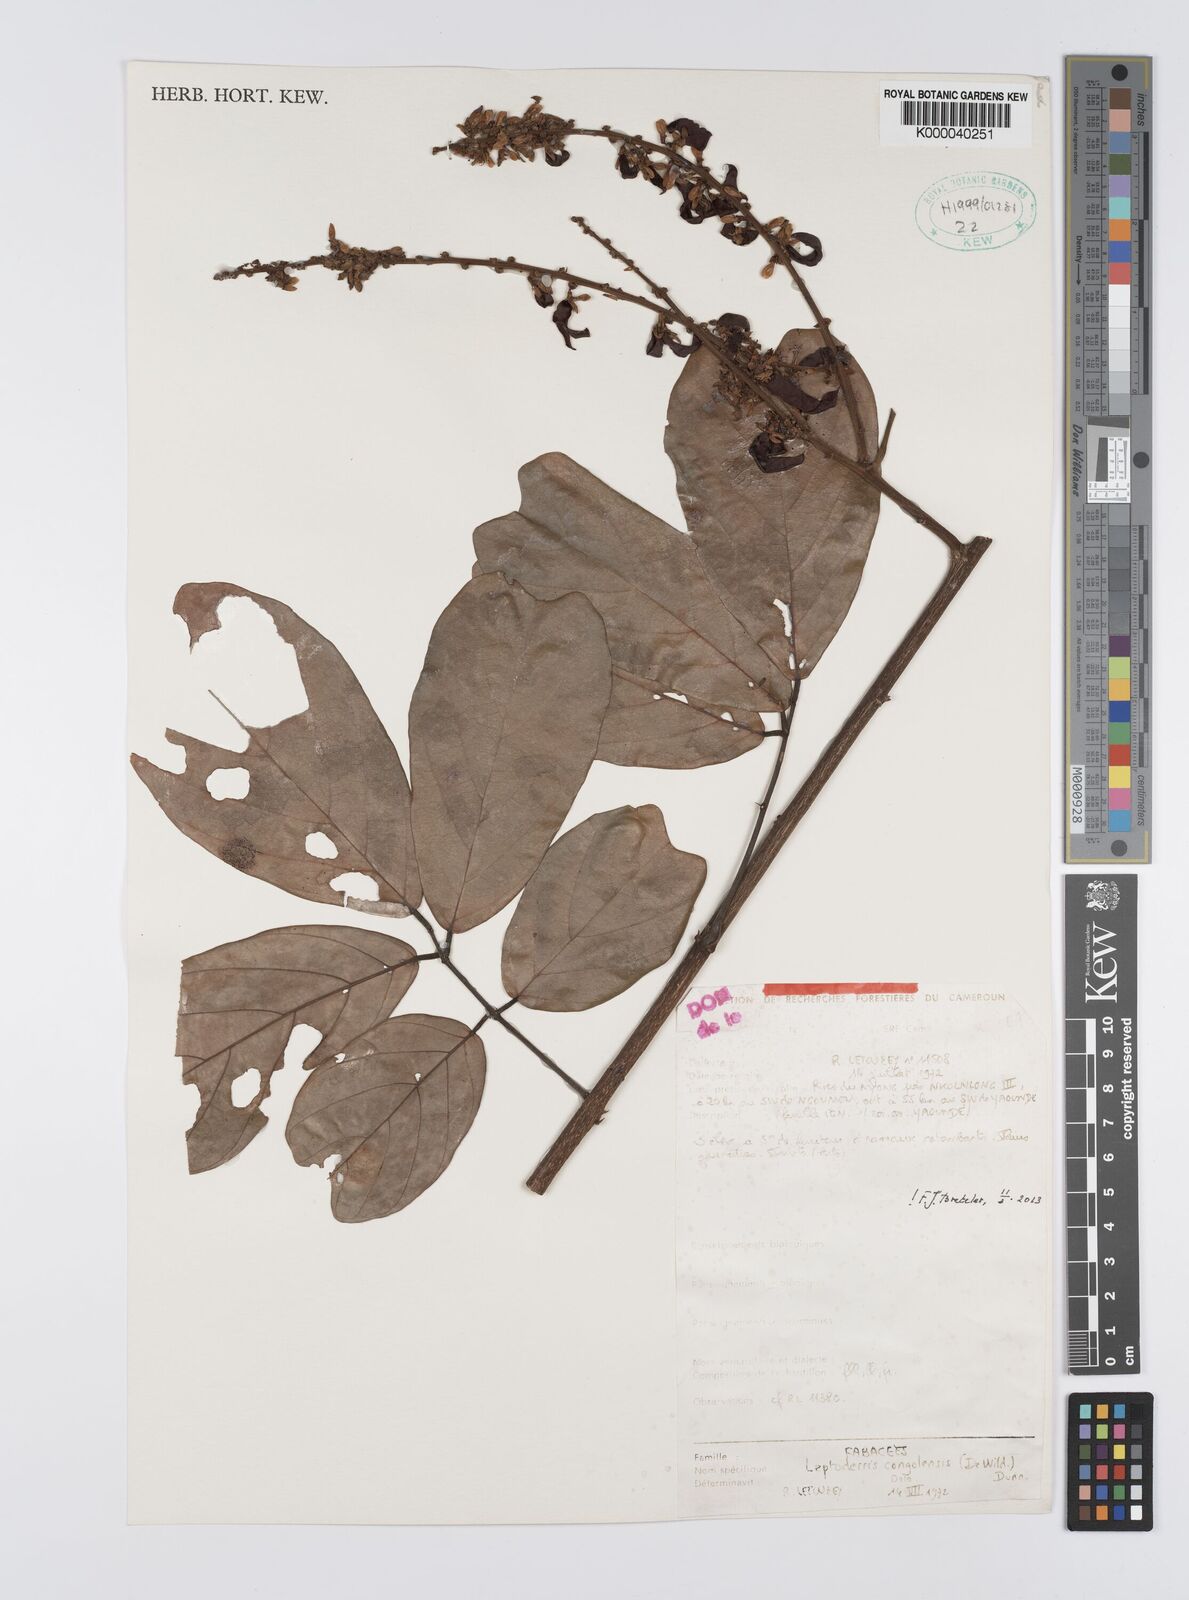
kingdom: Plantae
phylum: Tracheophyta
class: Magnoliopsida
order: Fabales
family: Fabaceae
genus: Leptoderris
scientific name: Leptoderris congolensis
